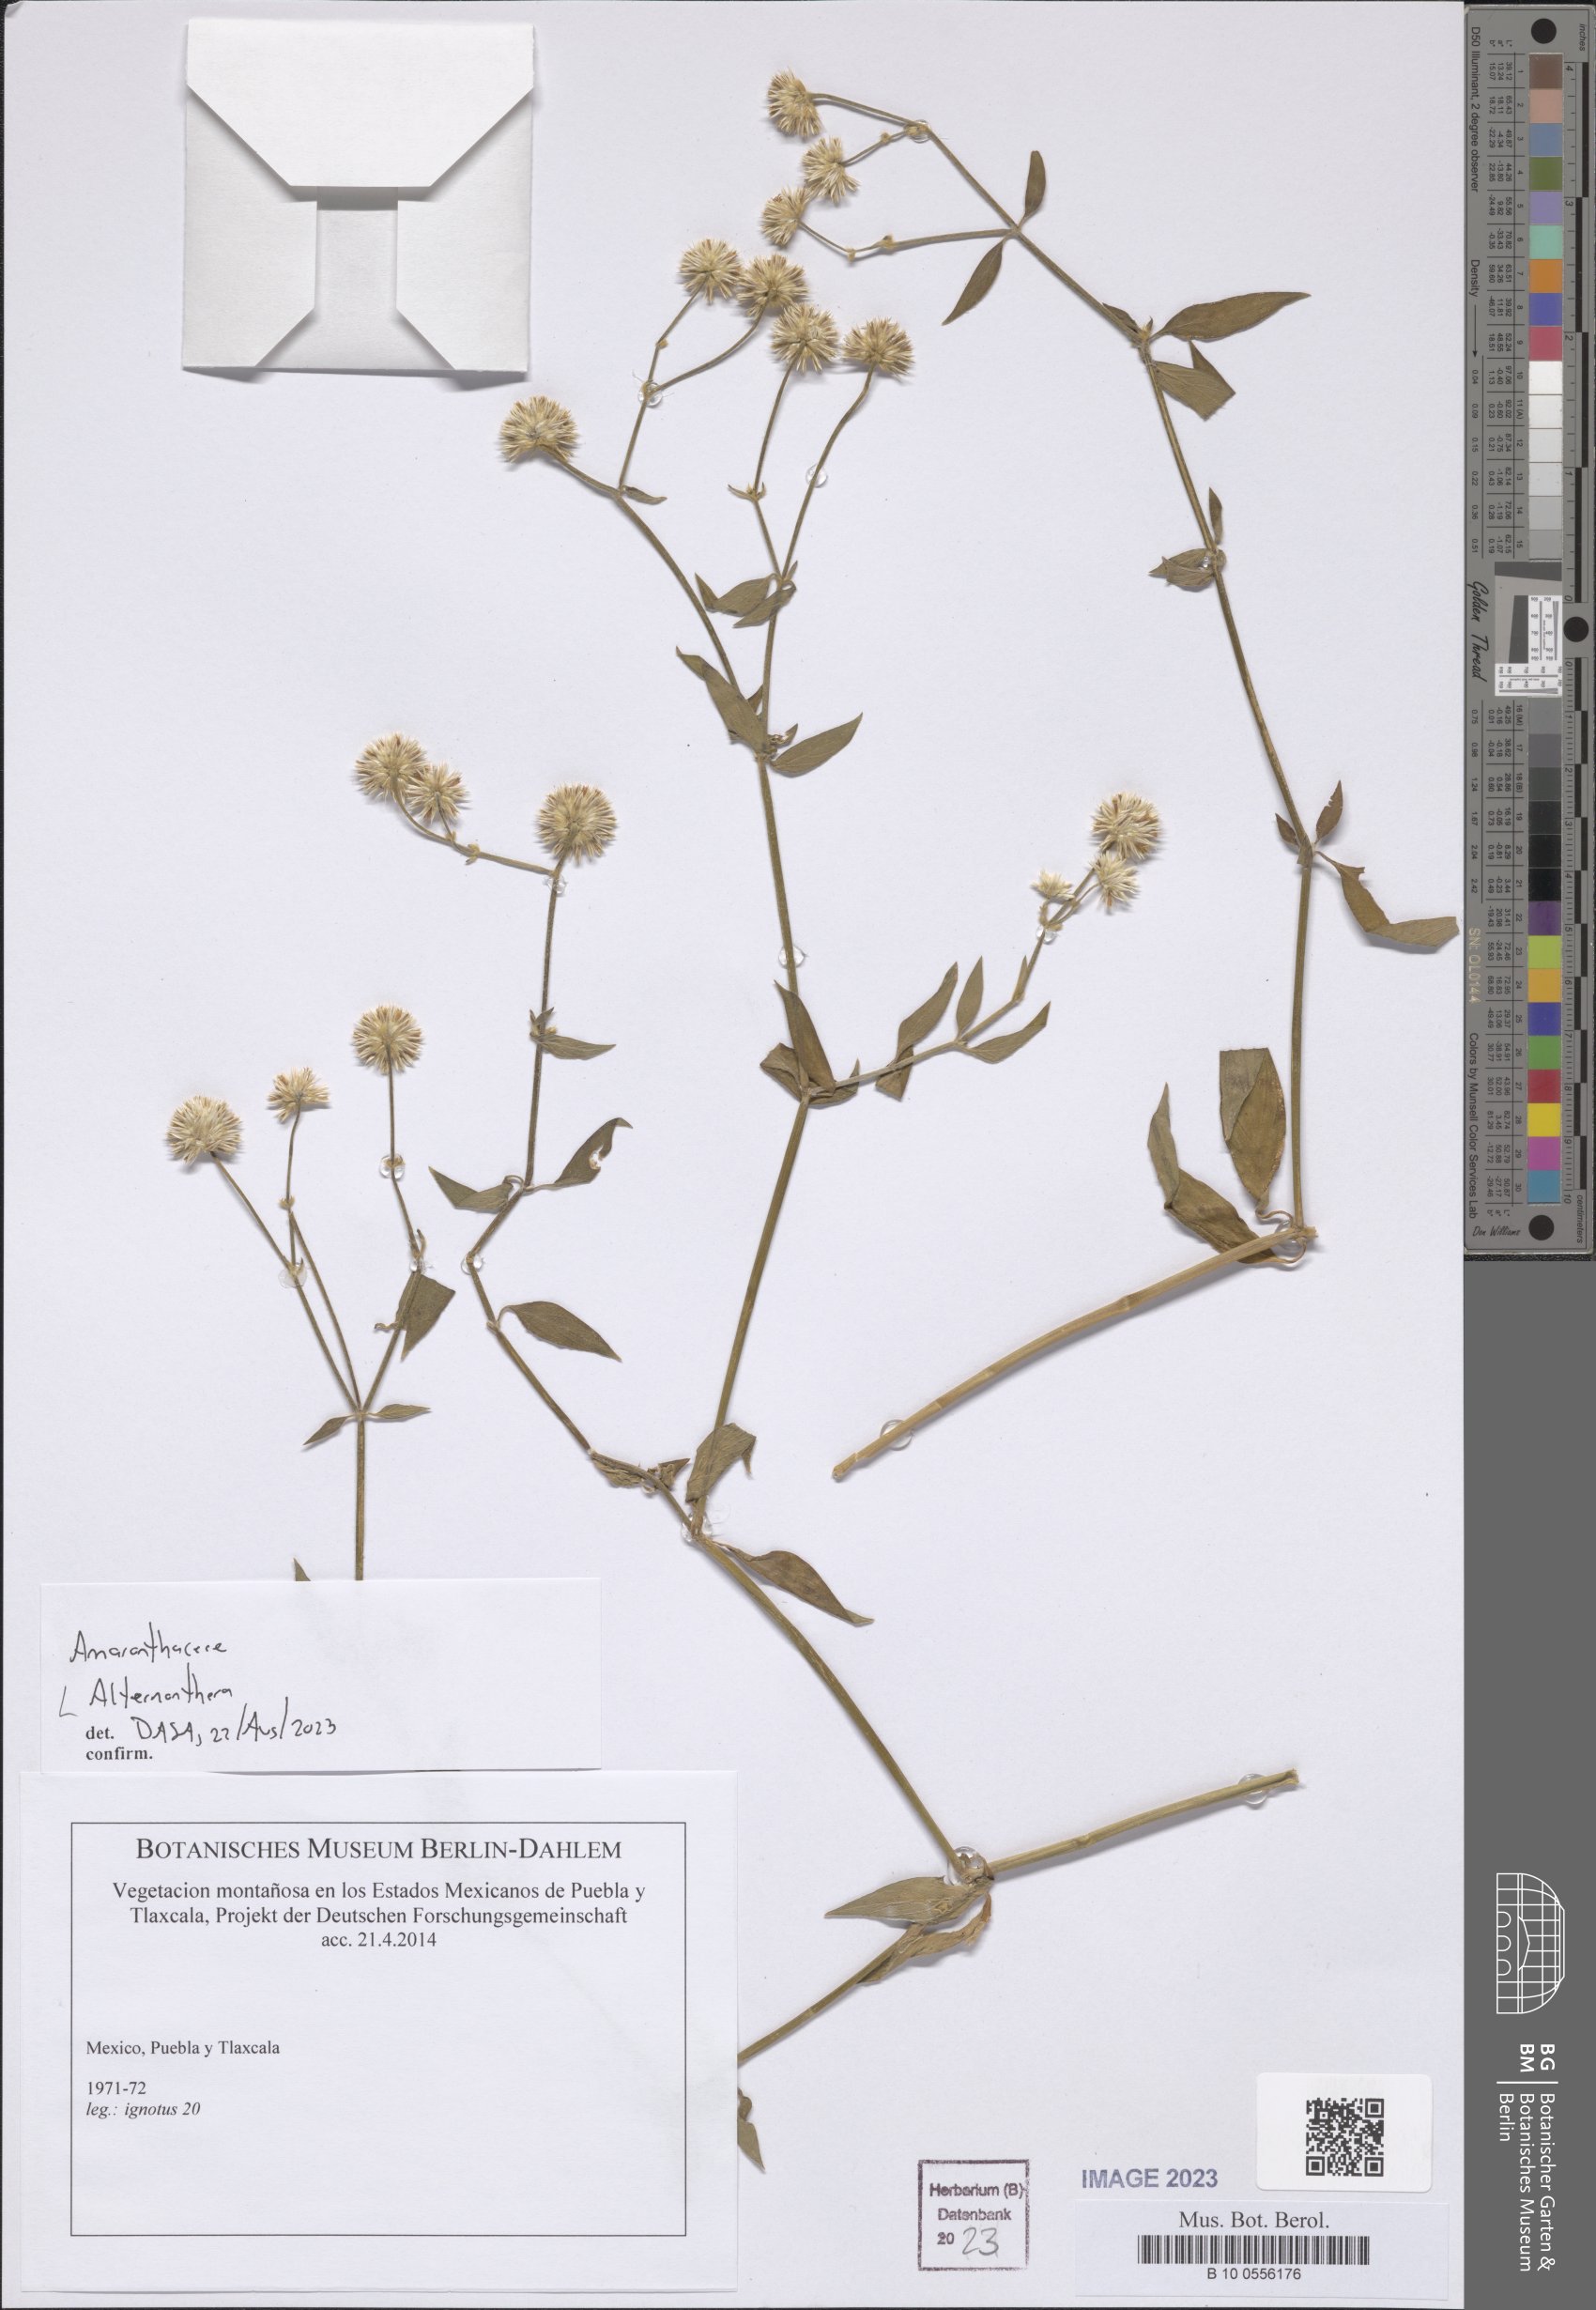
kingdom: Plantae
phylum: Tracheophyta
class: Magnoliopsida
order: Caryophyllales
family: Amaranthaceae
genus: Alternanthera
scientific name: Alternanthera
